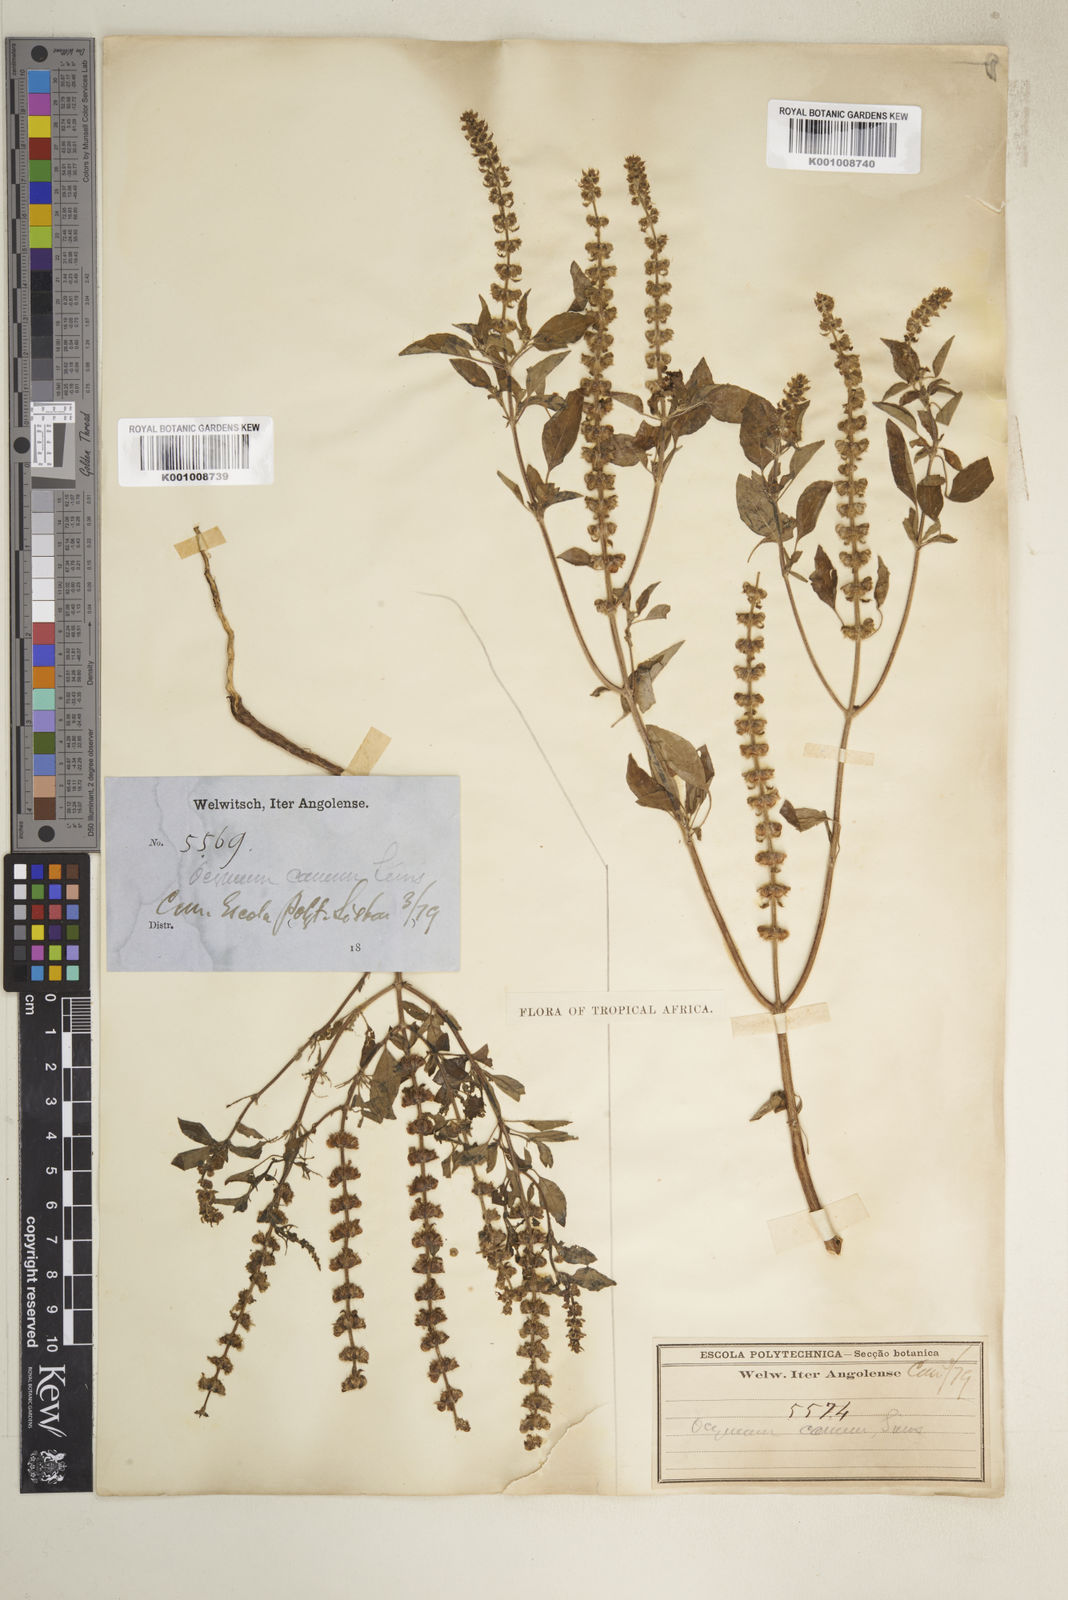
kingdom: Plantae
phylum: Tracheophyta
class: Magnoliopsida
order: Lamiales
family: Lamiaceae
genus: Ocimum
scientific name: Ocimum americanum
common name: American basil
